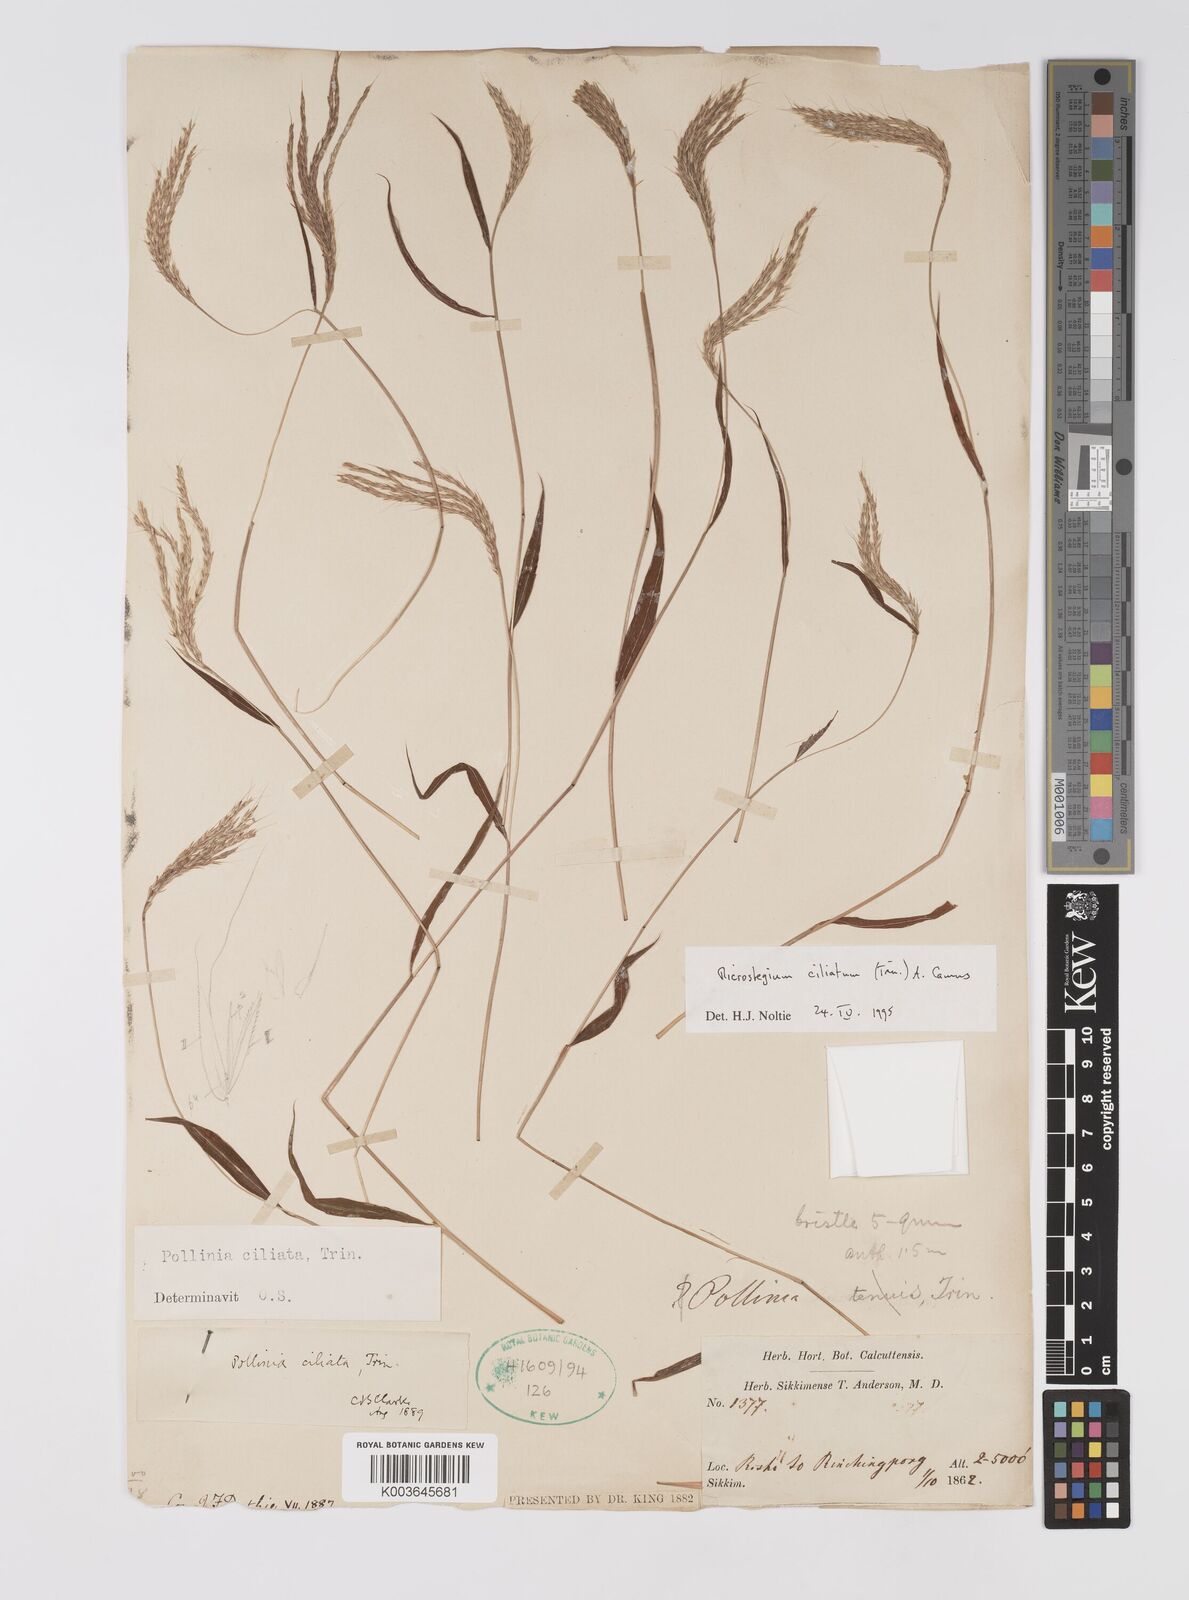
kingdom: Plantae
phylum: Tracheophyta
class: Liliopsida
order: Poales
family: Poaceae
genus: Microstegium
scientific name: Microstegium fasciculatum
